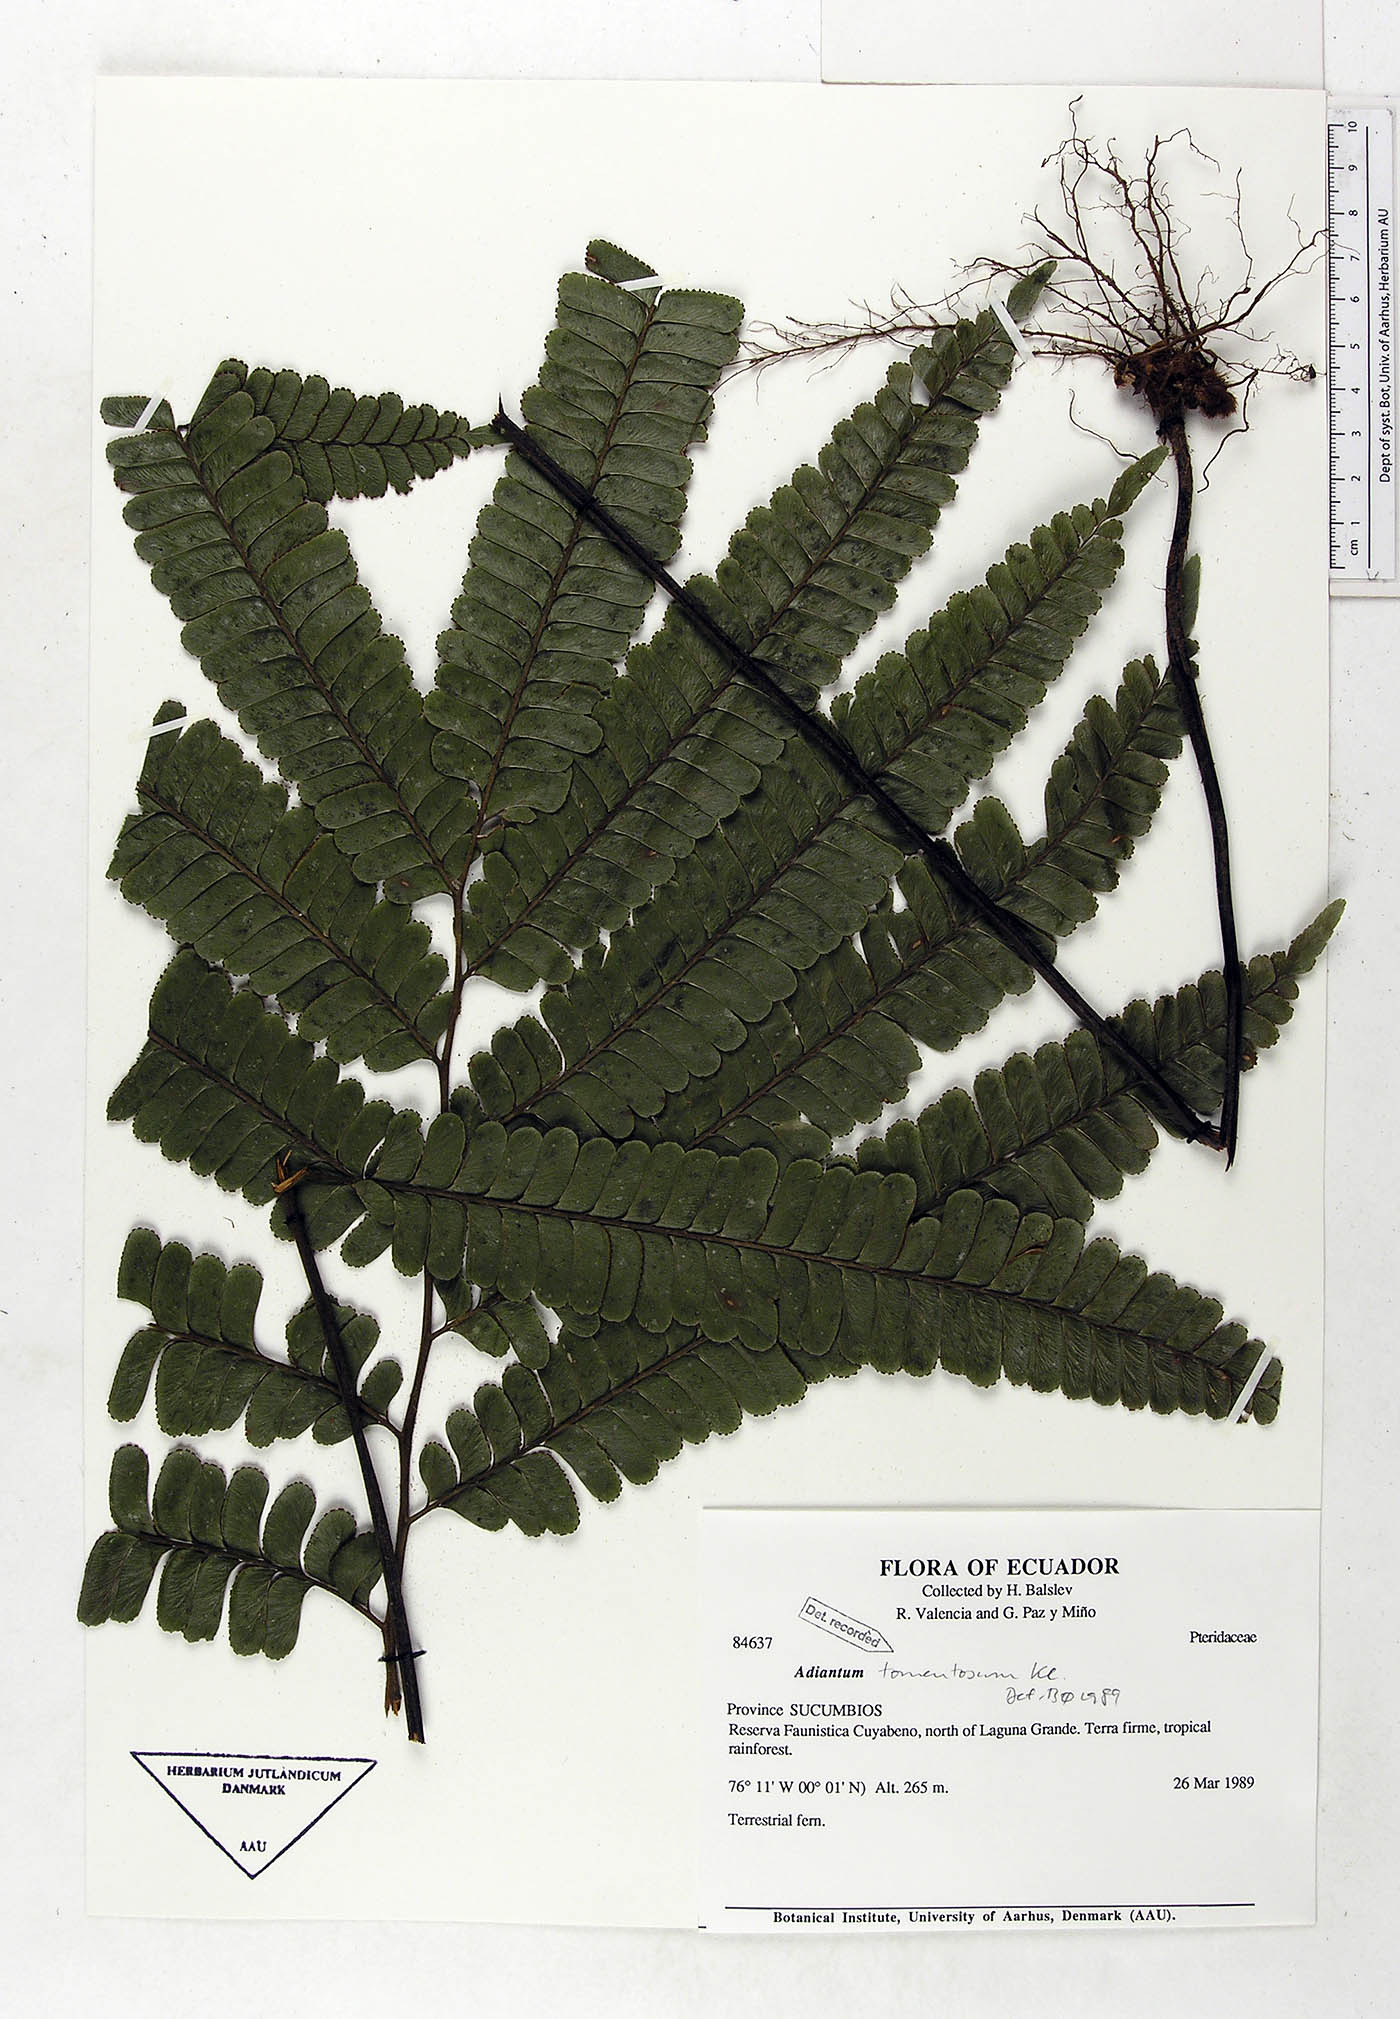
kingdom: Plantae
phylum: Tracheophyta
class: Polypodiopsida
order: Polypodiales
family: Pteridaceae
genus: Adiantum
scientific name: Adiantum tomentosum
